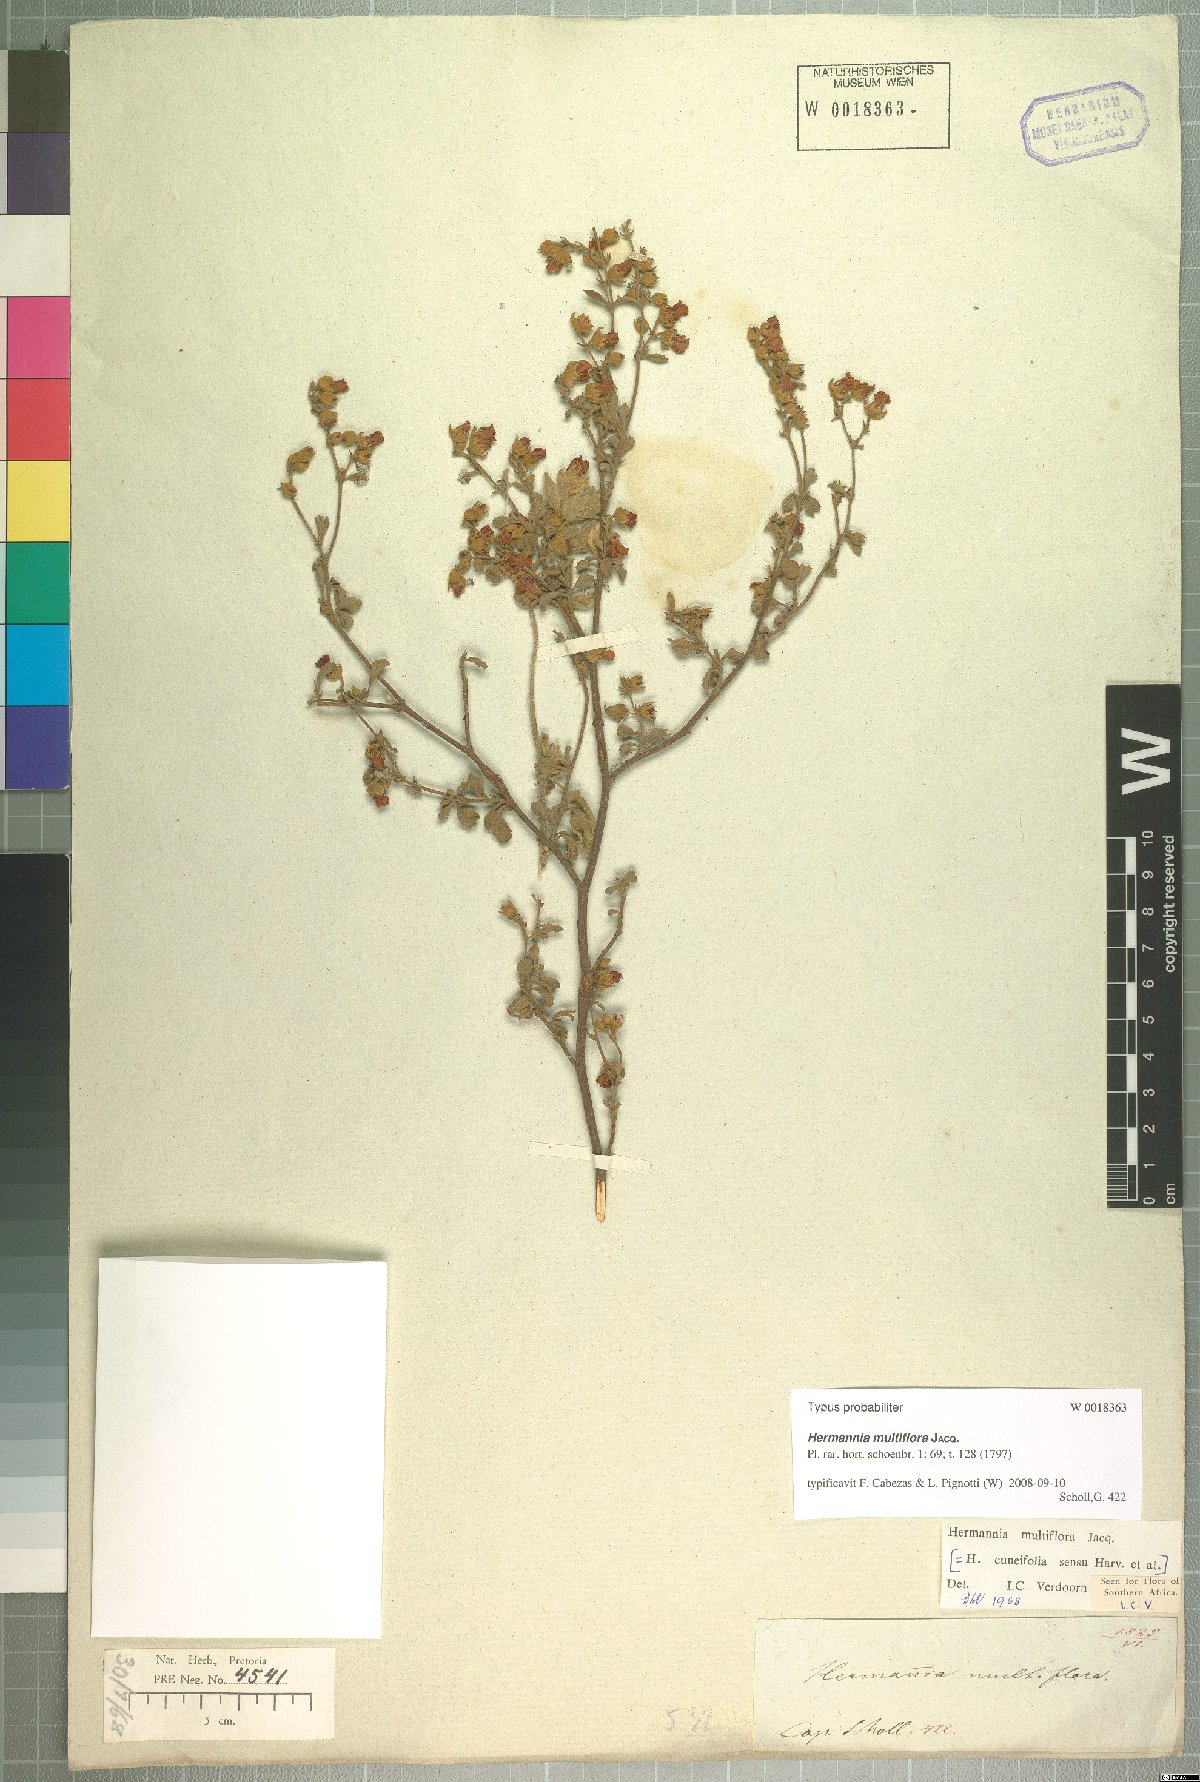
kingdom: Plantae
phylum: Tracheophyta
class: Magnoliopsida
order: Malvales
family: Malvaceae
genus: Hermannia
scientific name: Hermannia multiflora
